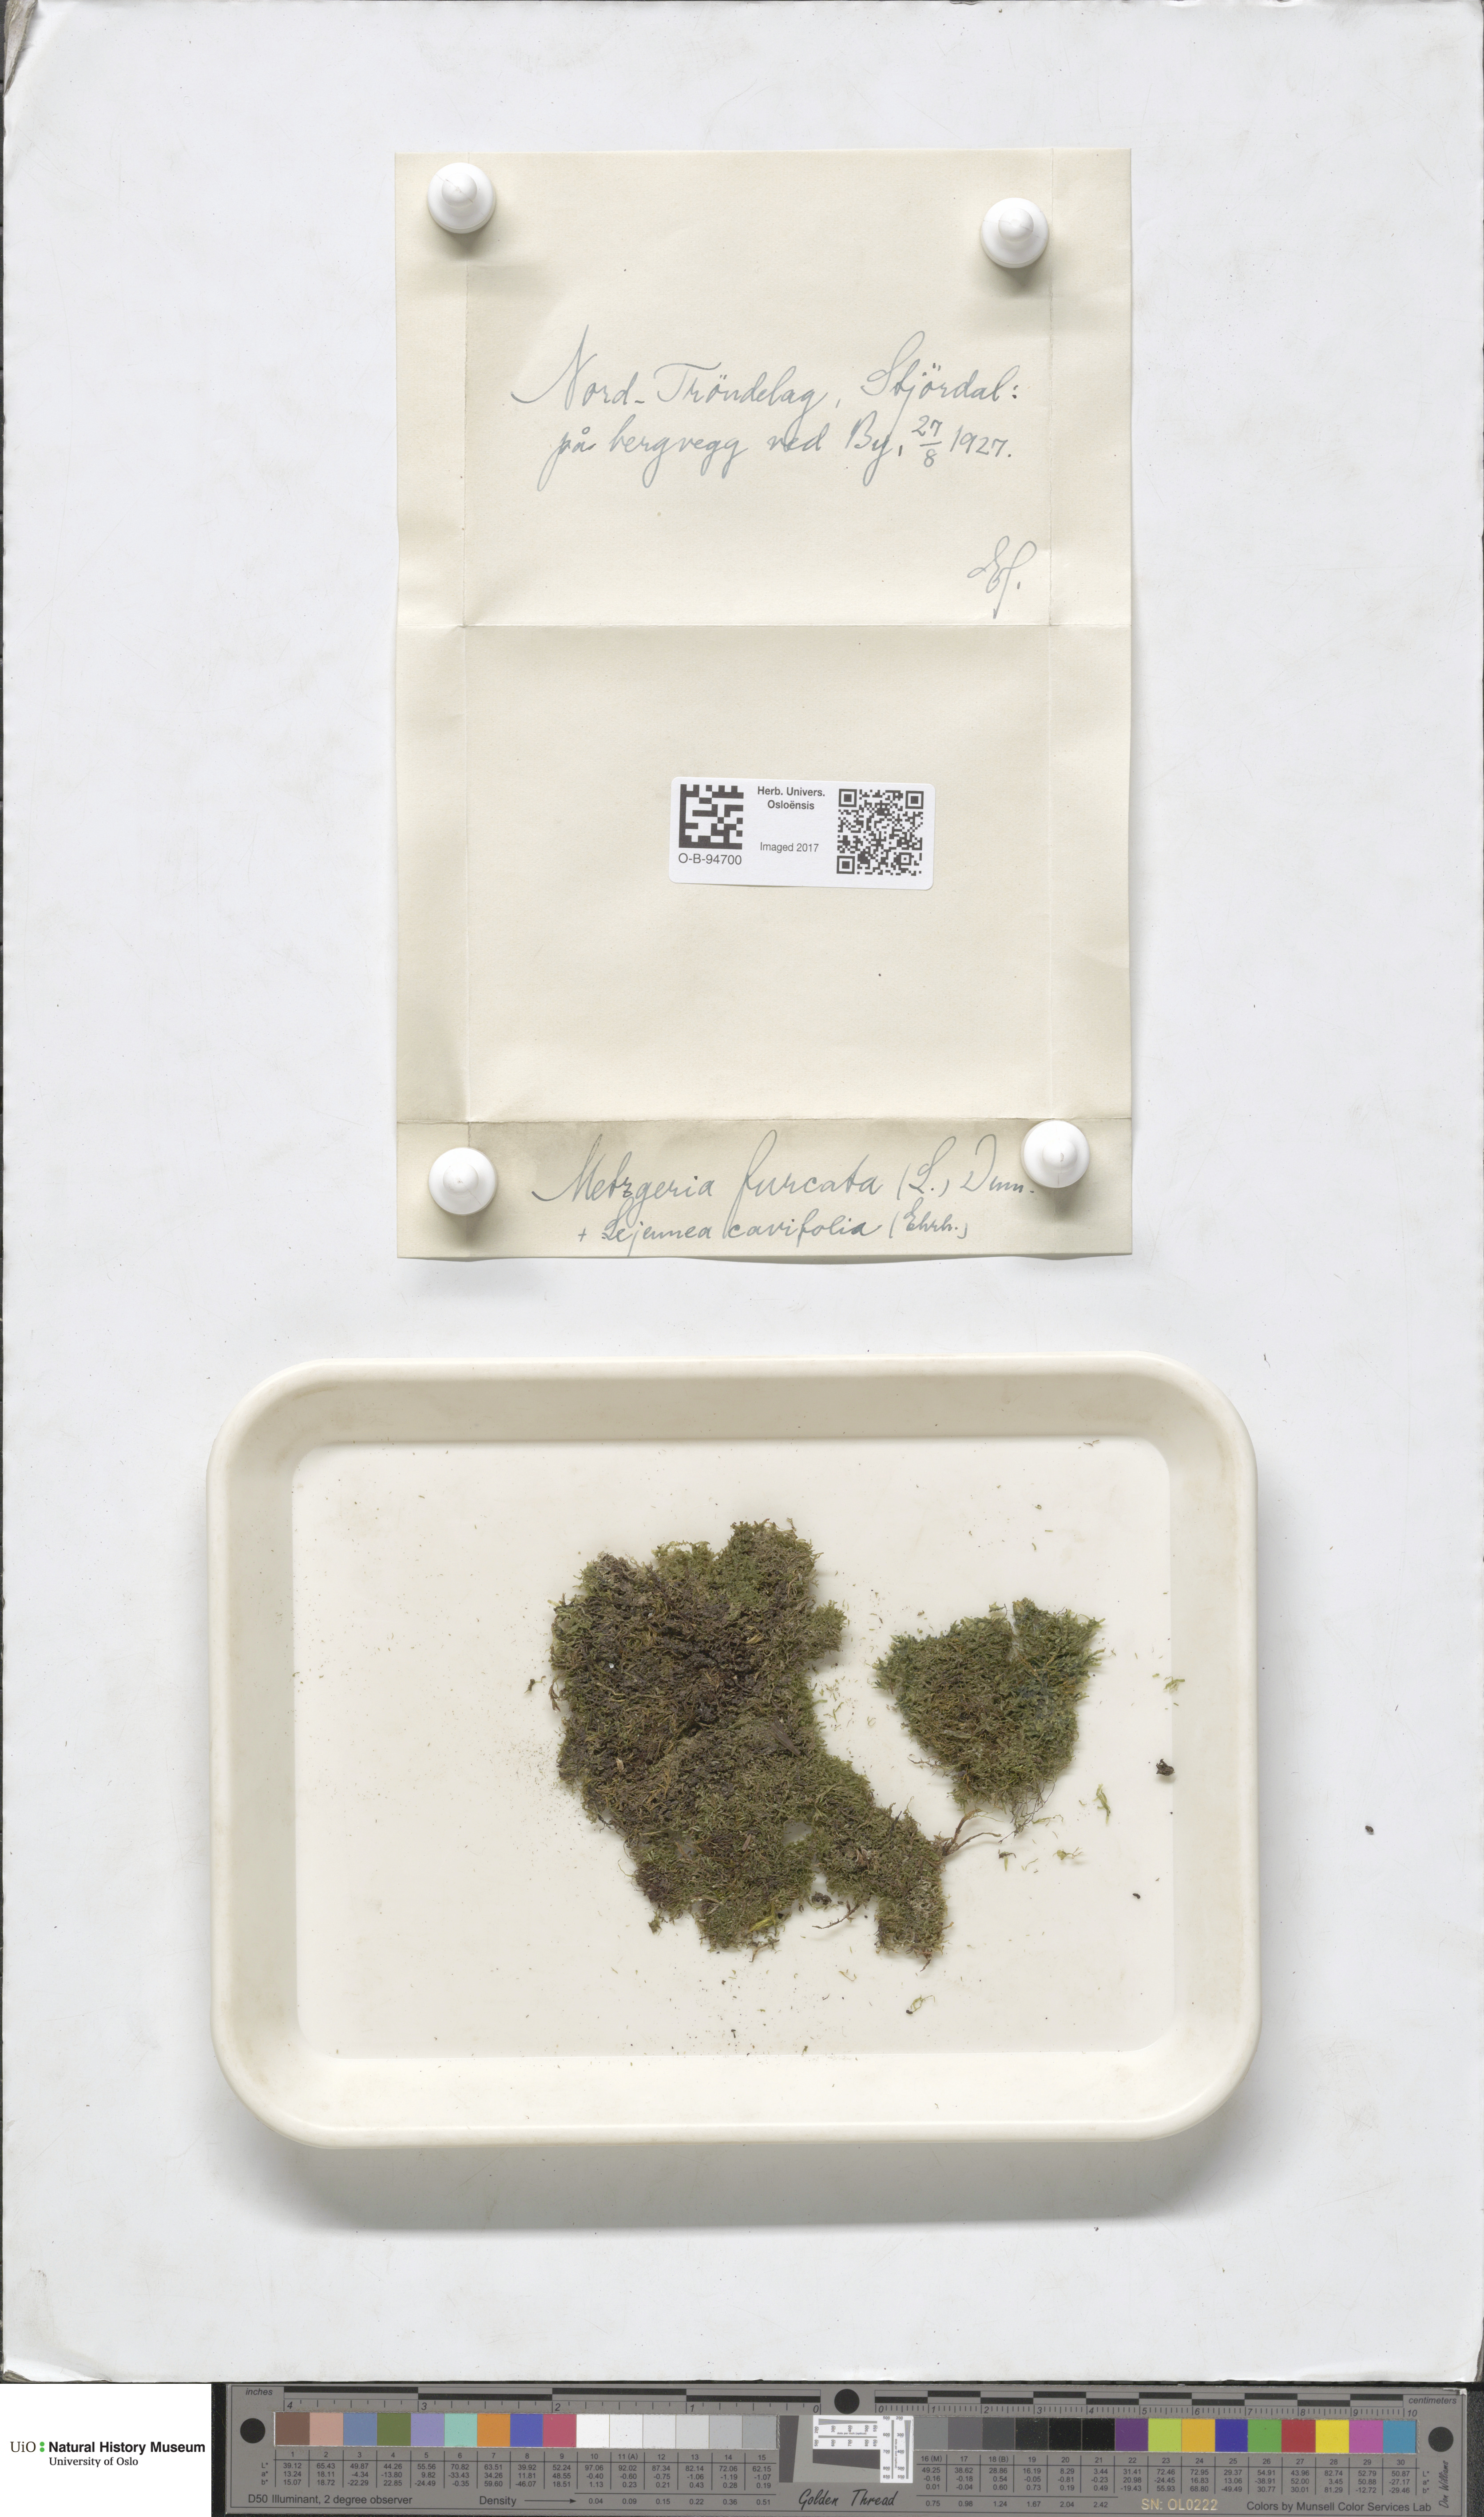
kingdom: Plantae
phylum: Marchantiophyta
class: Jungermanniopsida
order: Metzgeriales
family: Metzgeriaceae
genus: Metzgeria
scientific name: Metzgeria furcata
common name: Forked veilwort
